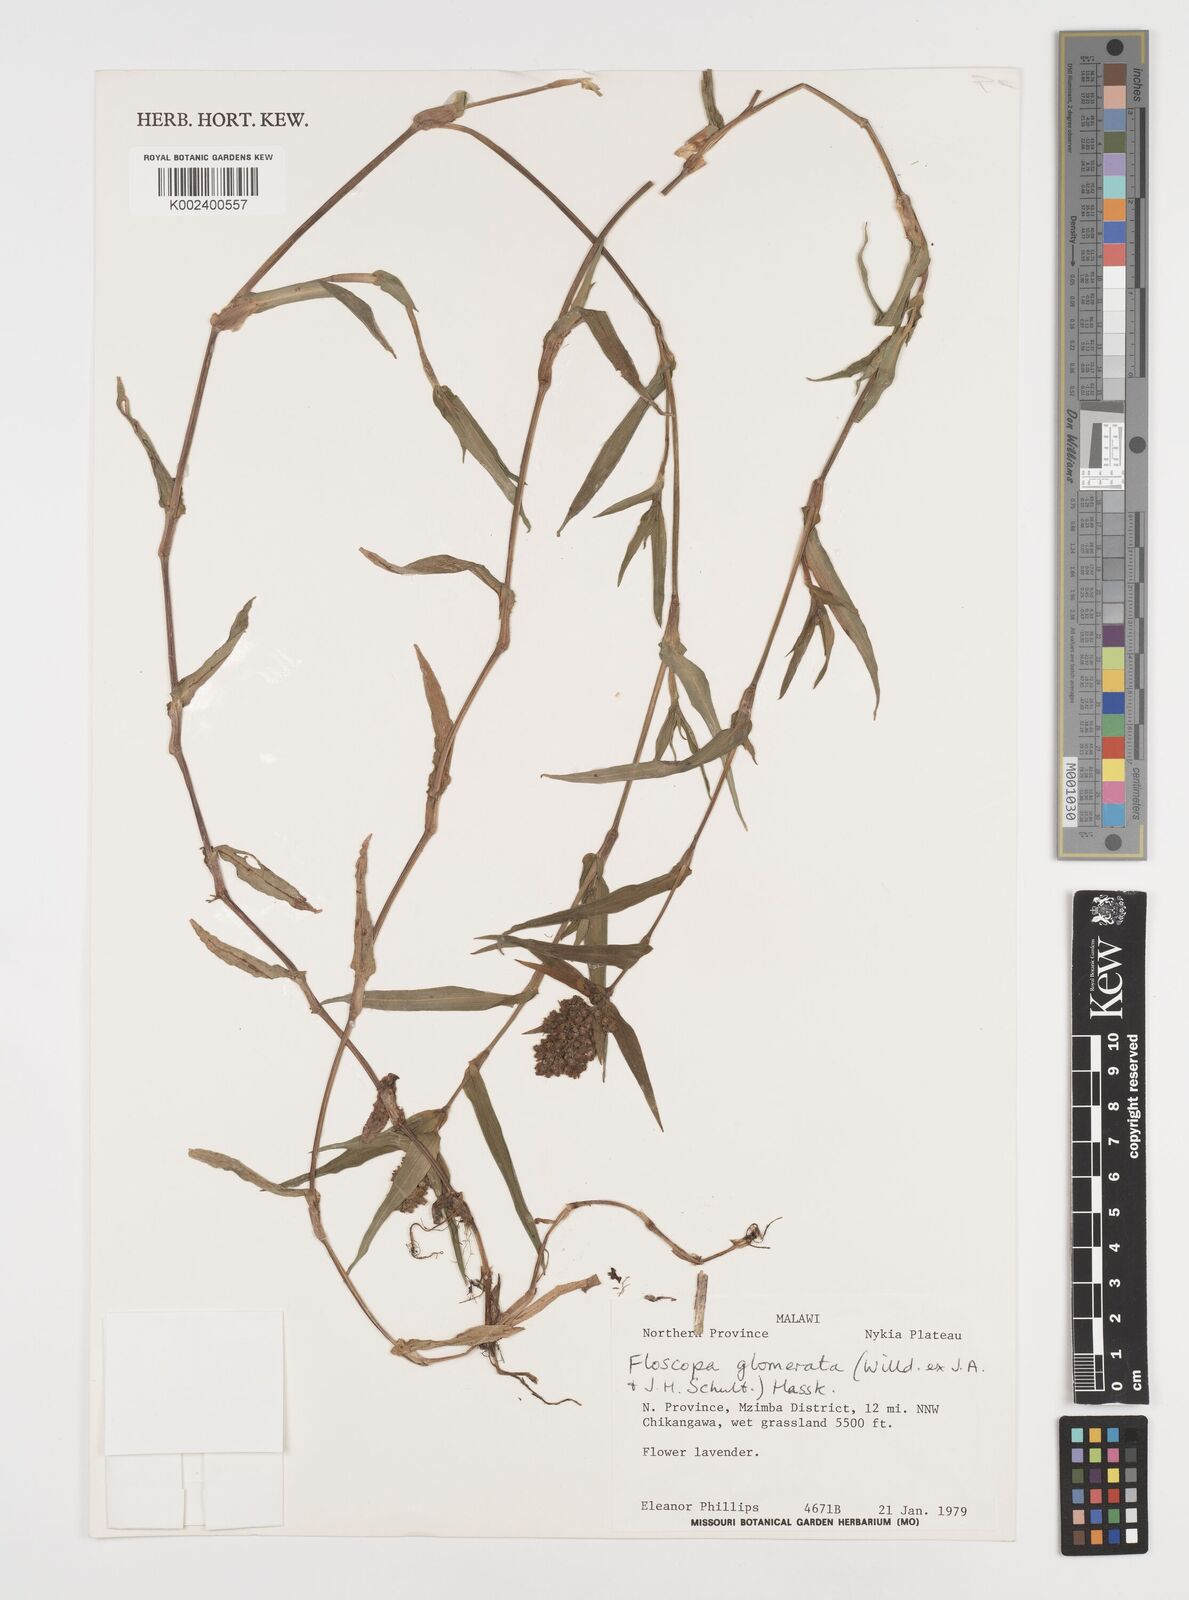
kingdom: Plantae
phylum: Tracheophyta
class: Liliopsida
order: Commelinales
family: Commelinaceae
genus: Floscopa
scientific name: Floscopa glomerata
